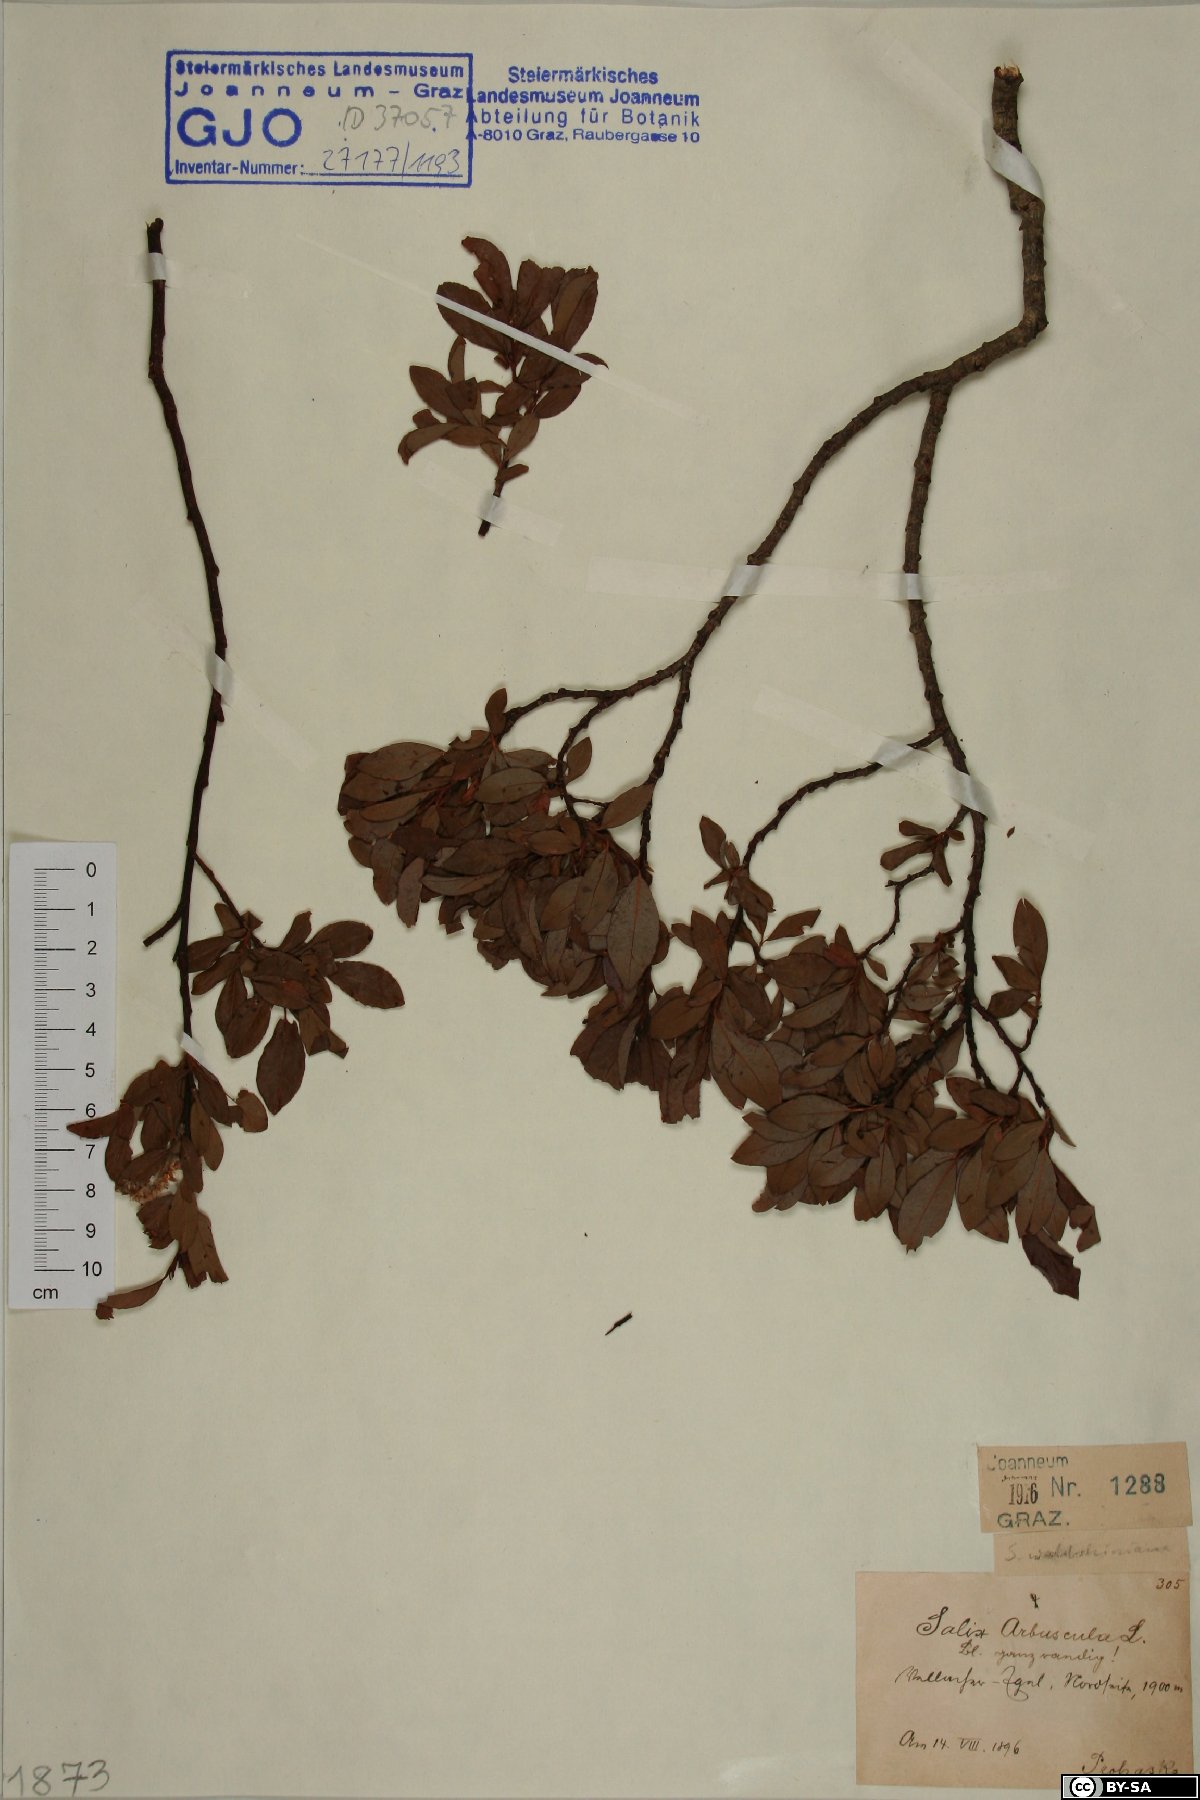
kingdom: Plantae
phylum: Tracheophyta
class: Magnoliopsida
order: Malpighiales
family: Salicaceae
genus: Salix
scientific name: Salix waldsteiniana
